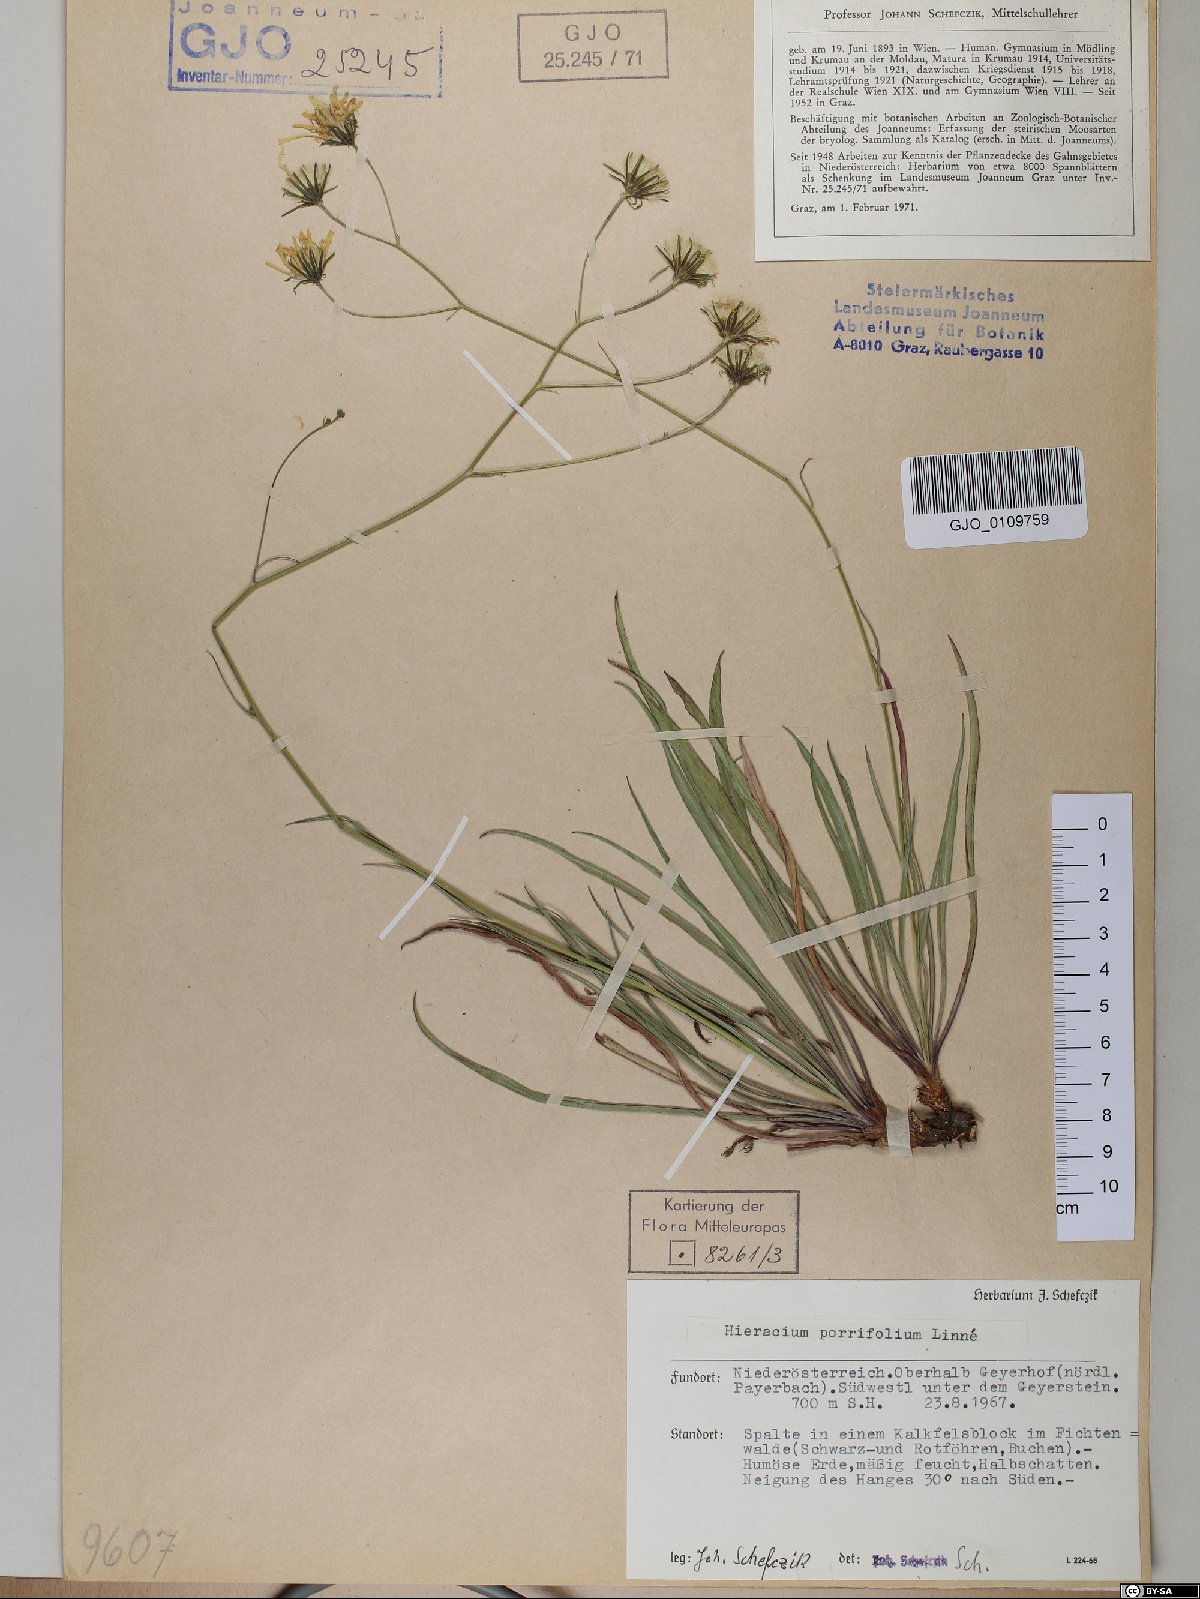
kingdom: Plantae
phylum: Tracheophyta
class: Magnoliopsida
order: Asterales
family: Asteraceae
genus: Hieracium
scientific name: Hieracium porrifolium
